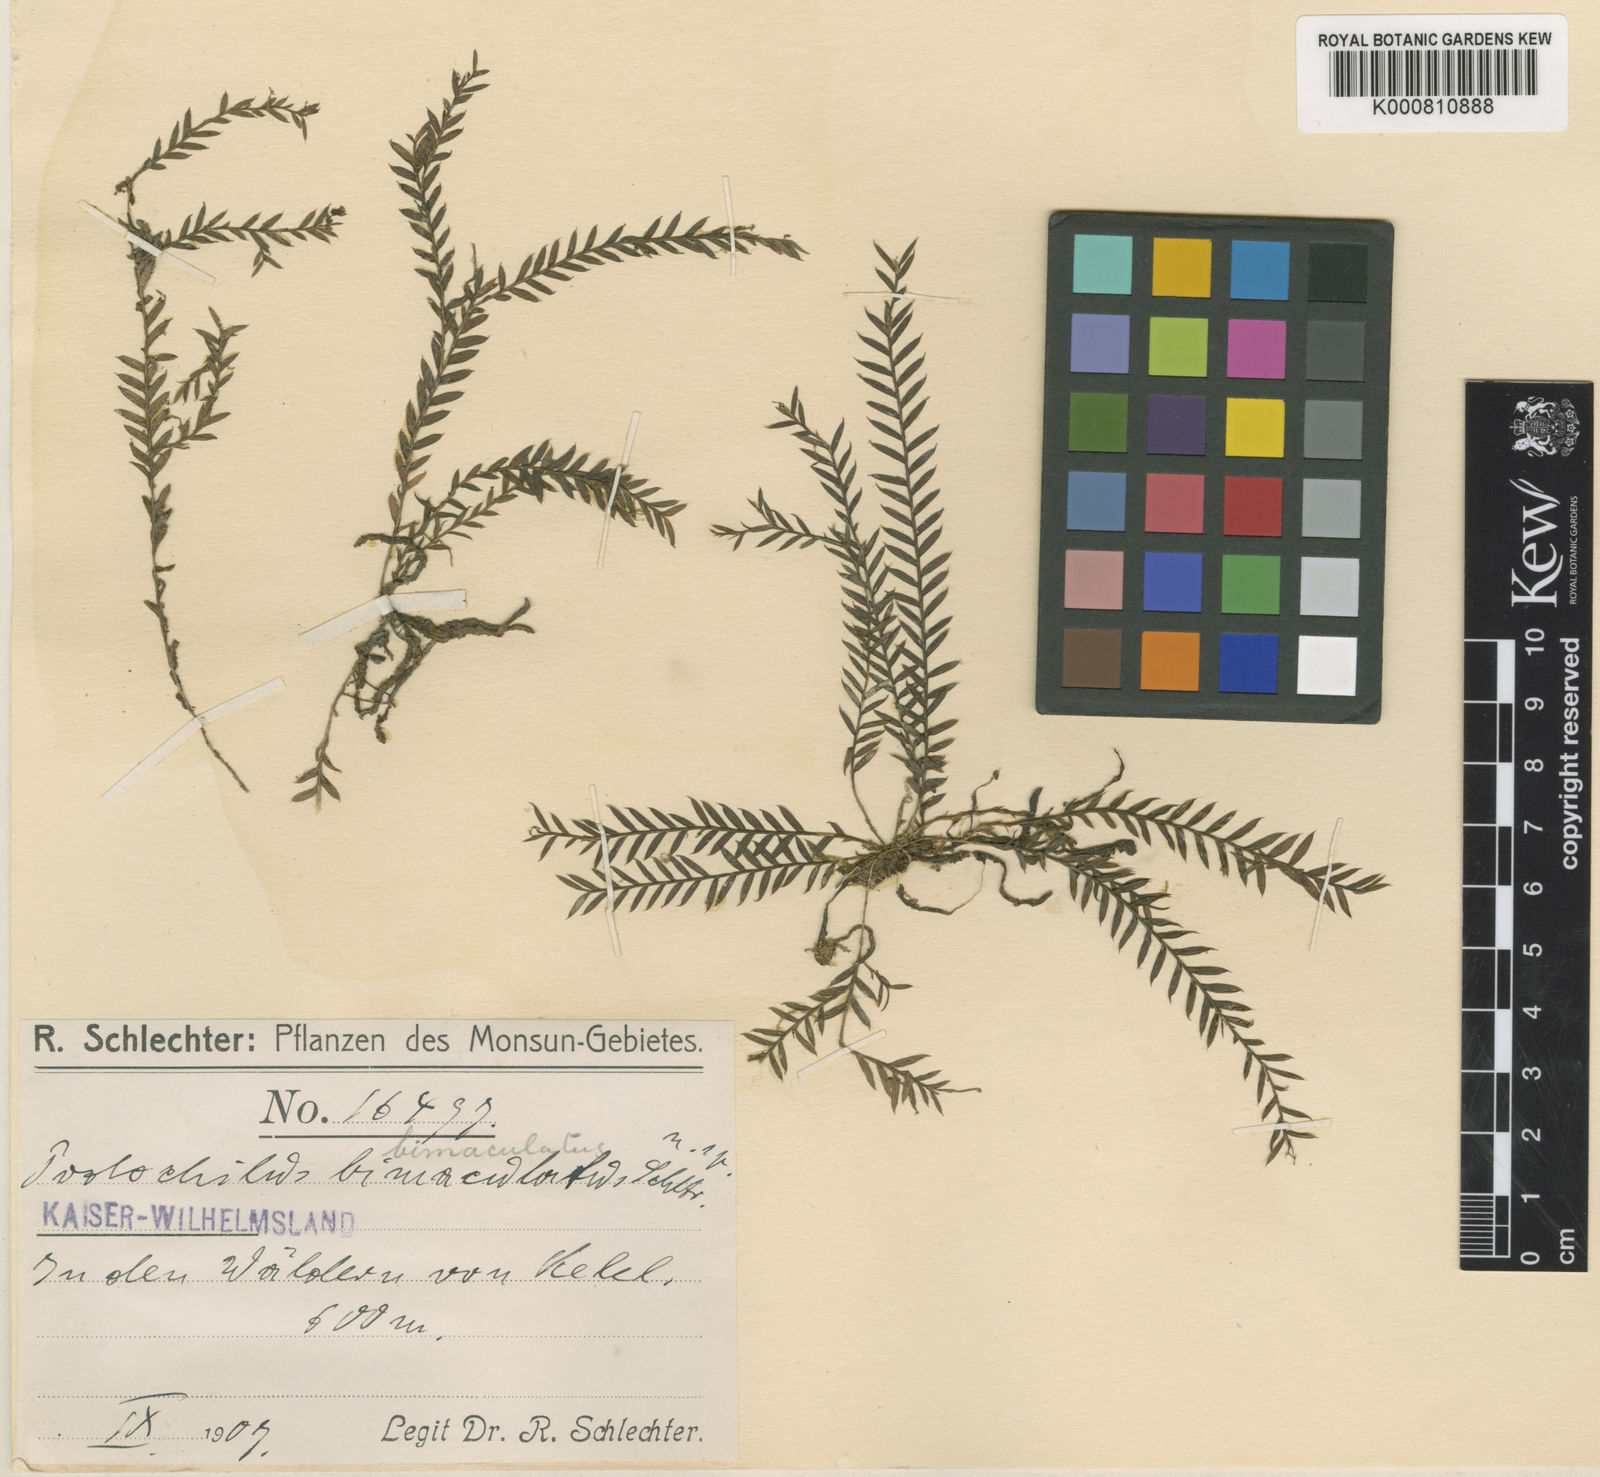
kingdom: Plantae
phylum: Tracheophyta
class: Liliopsida
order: Asparagales
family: Orchidaceae
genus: Podochilus
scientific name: Podochilus hellwigii
